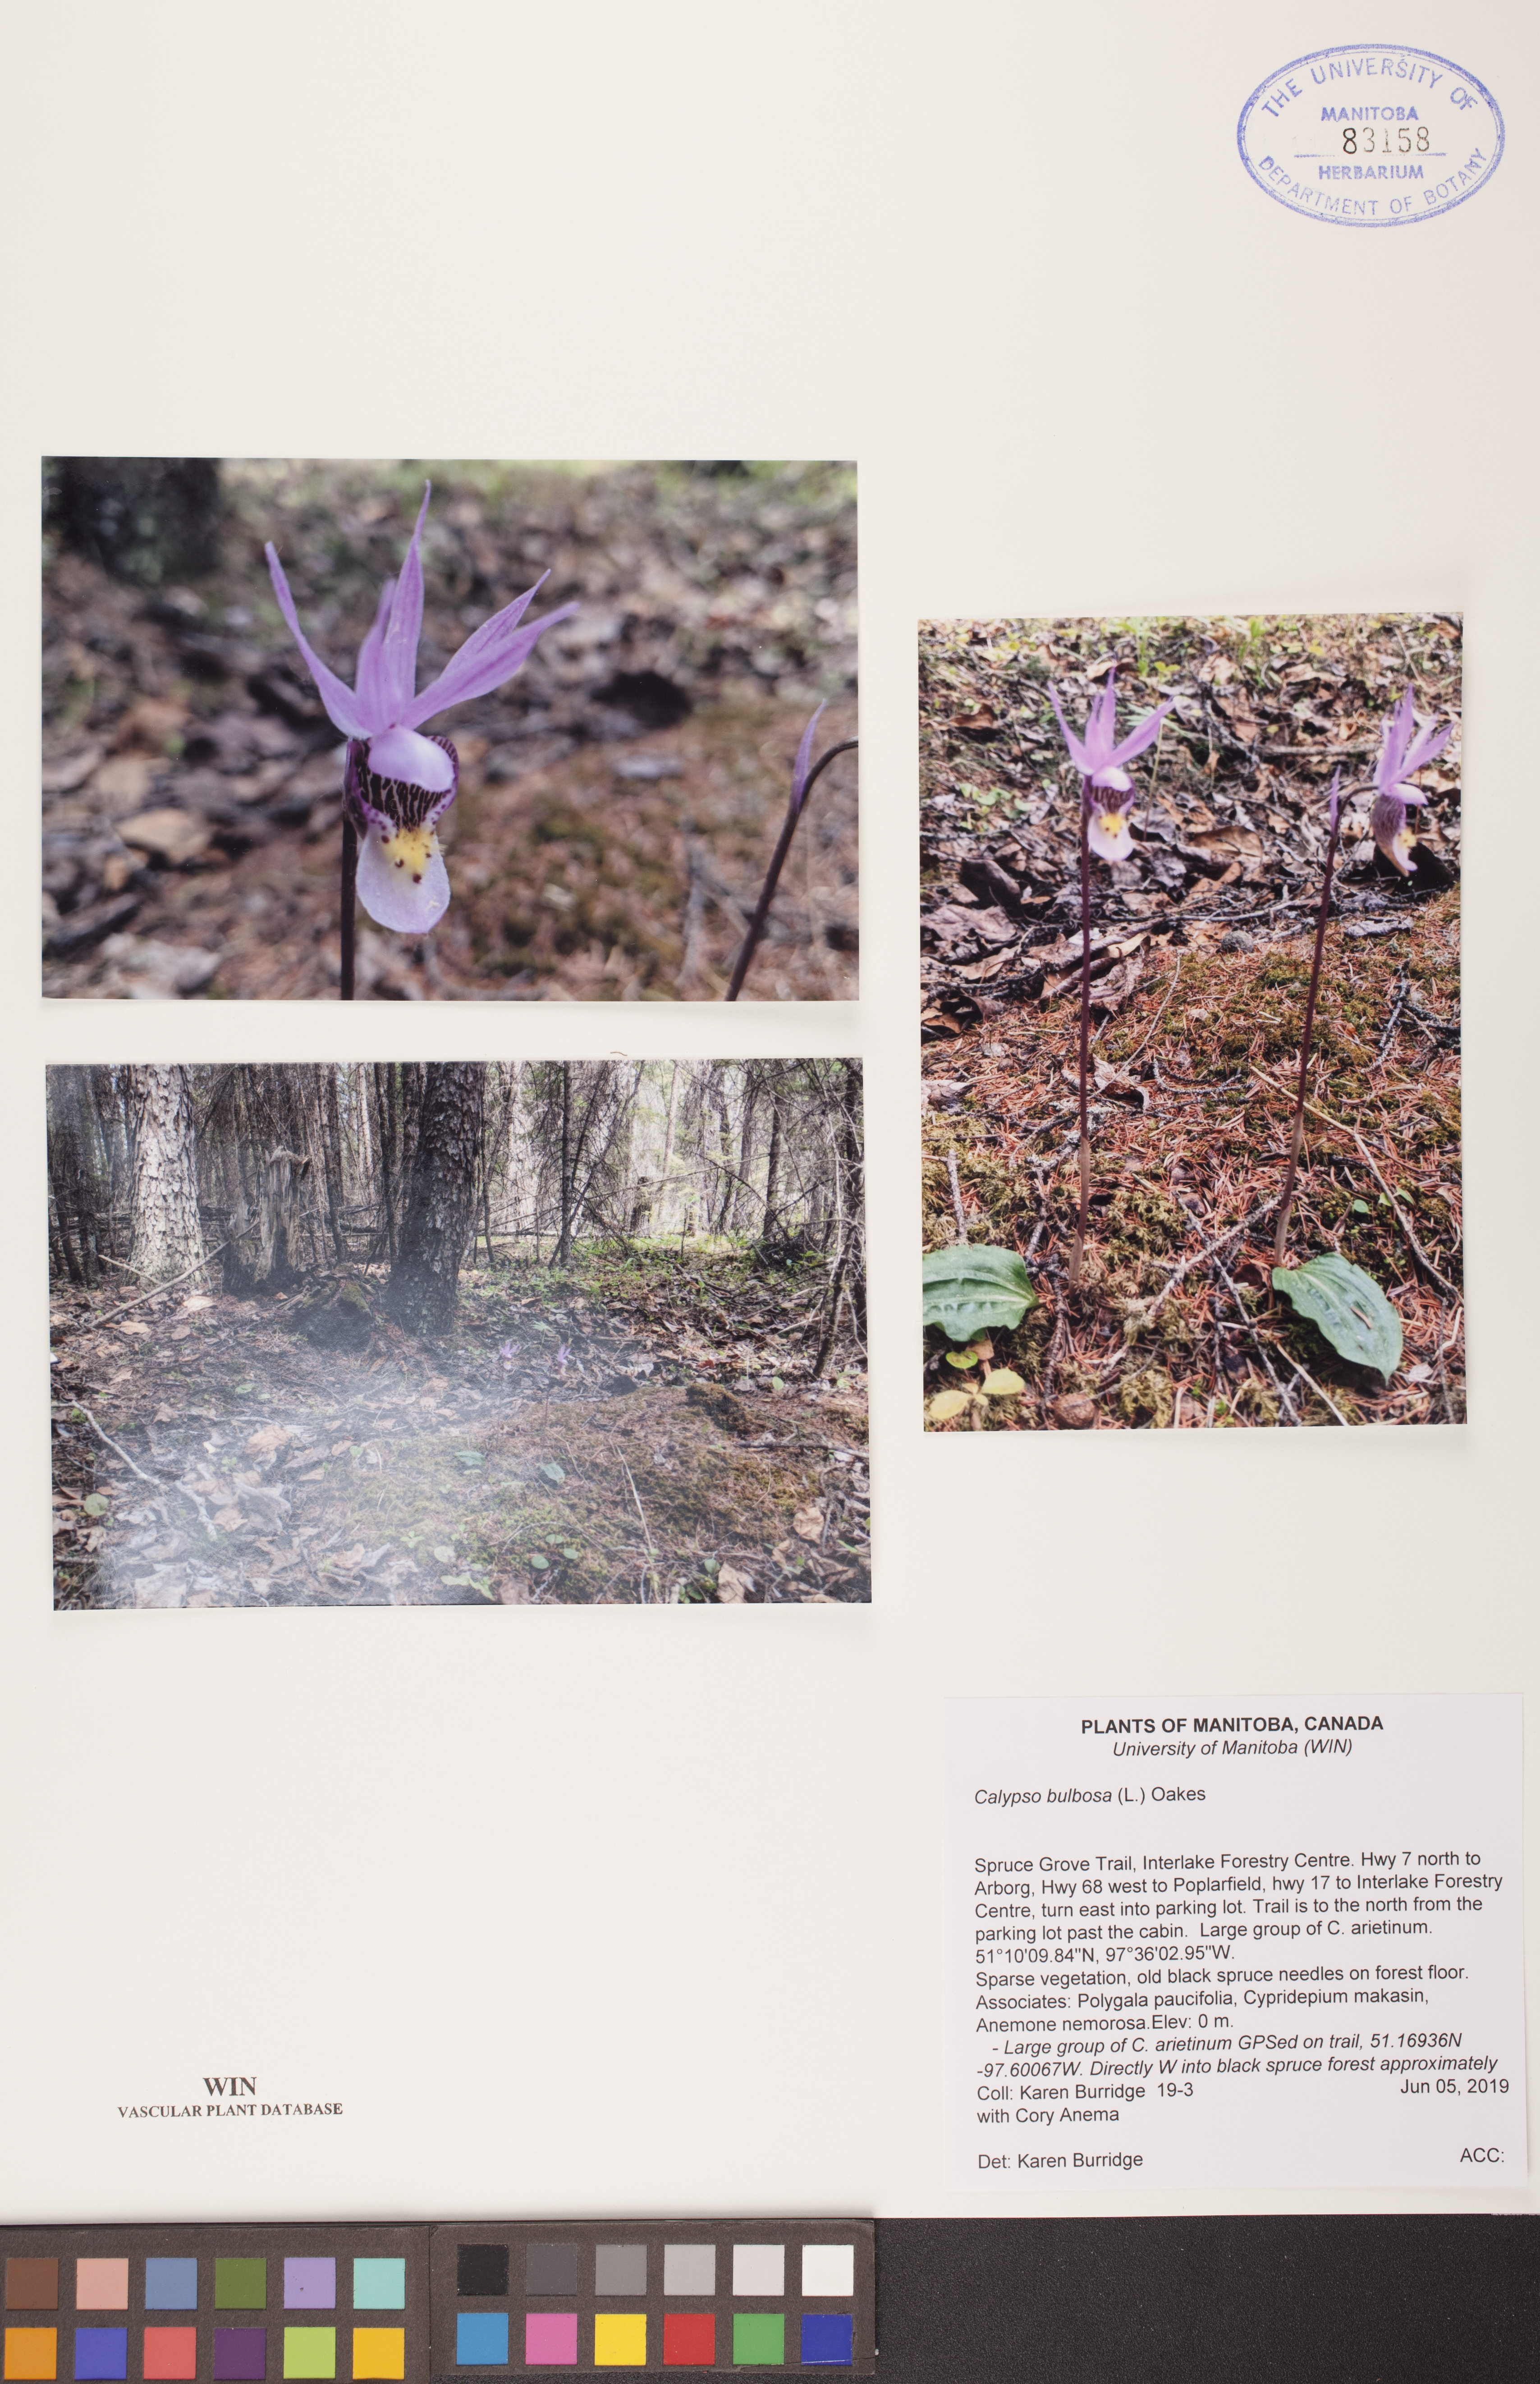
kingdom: Plantae
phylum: Tracheophyta
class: Liliopsida
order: Asparagales
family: Orchidaceae
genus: Calypso
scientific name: Calypso bulbosa
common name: Calypso
